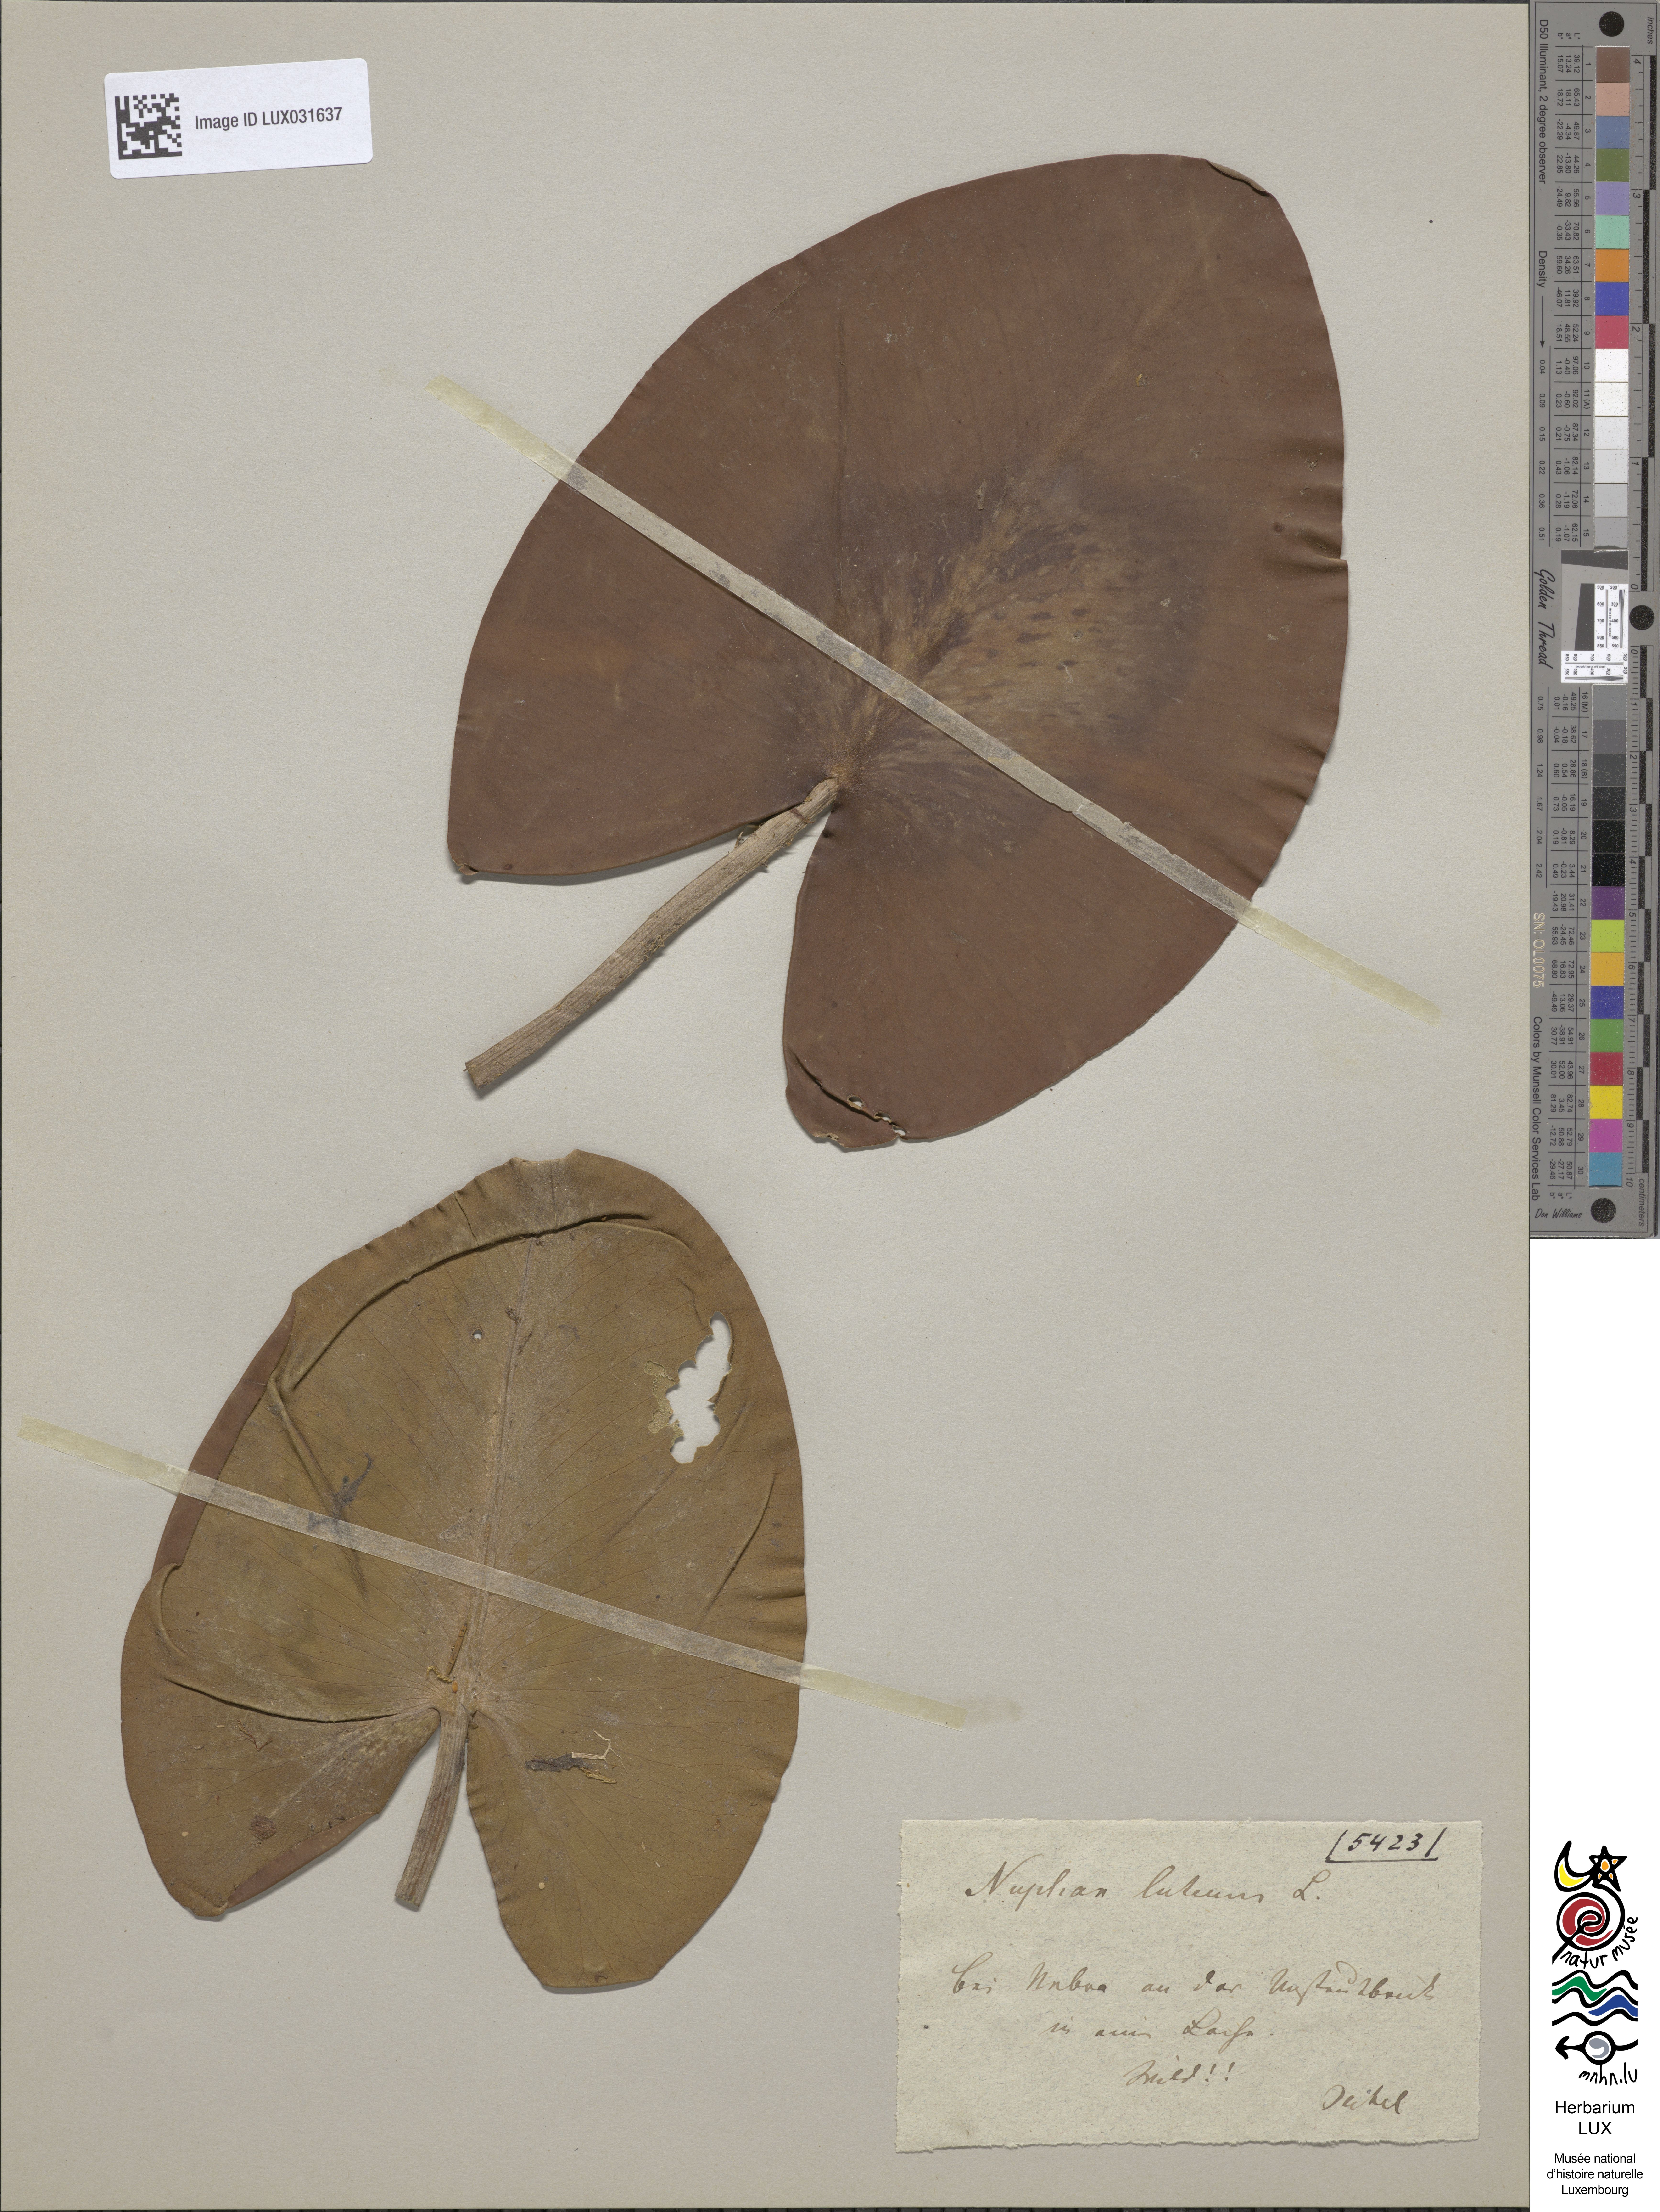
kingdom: Plantae
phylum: Tracheophyta
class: Magnoliopsida
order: Nymphaeales
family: Nymphaeaceae
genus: Nuphar
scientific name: Nuphar lutea
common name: Yellow water-lily
